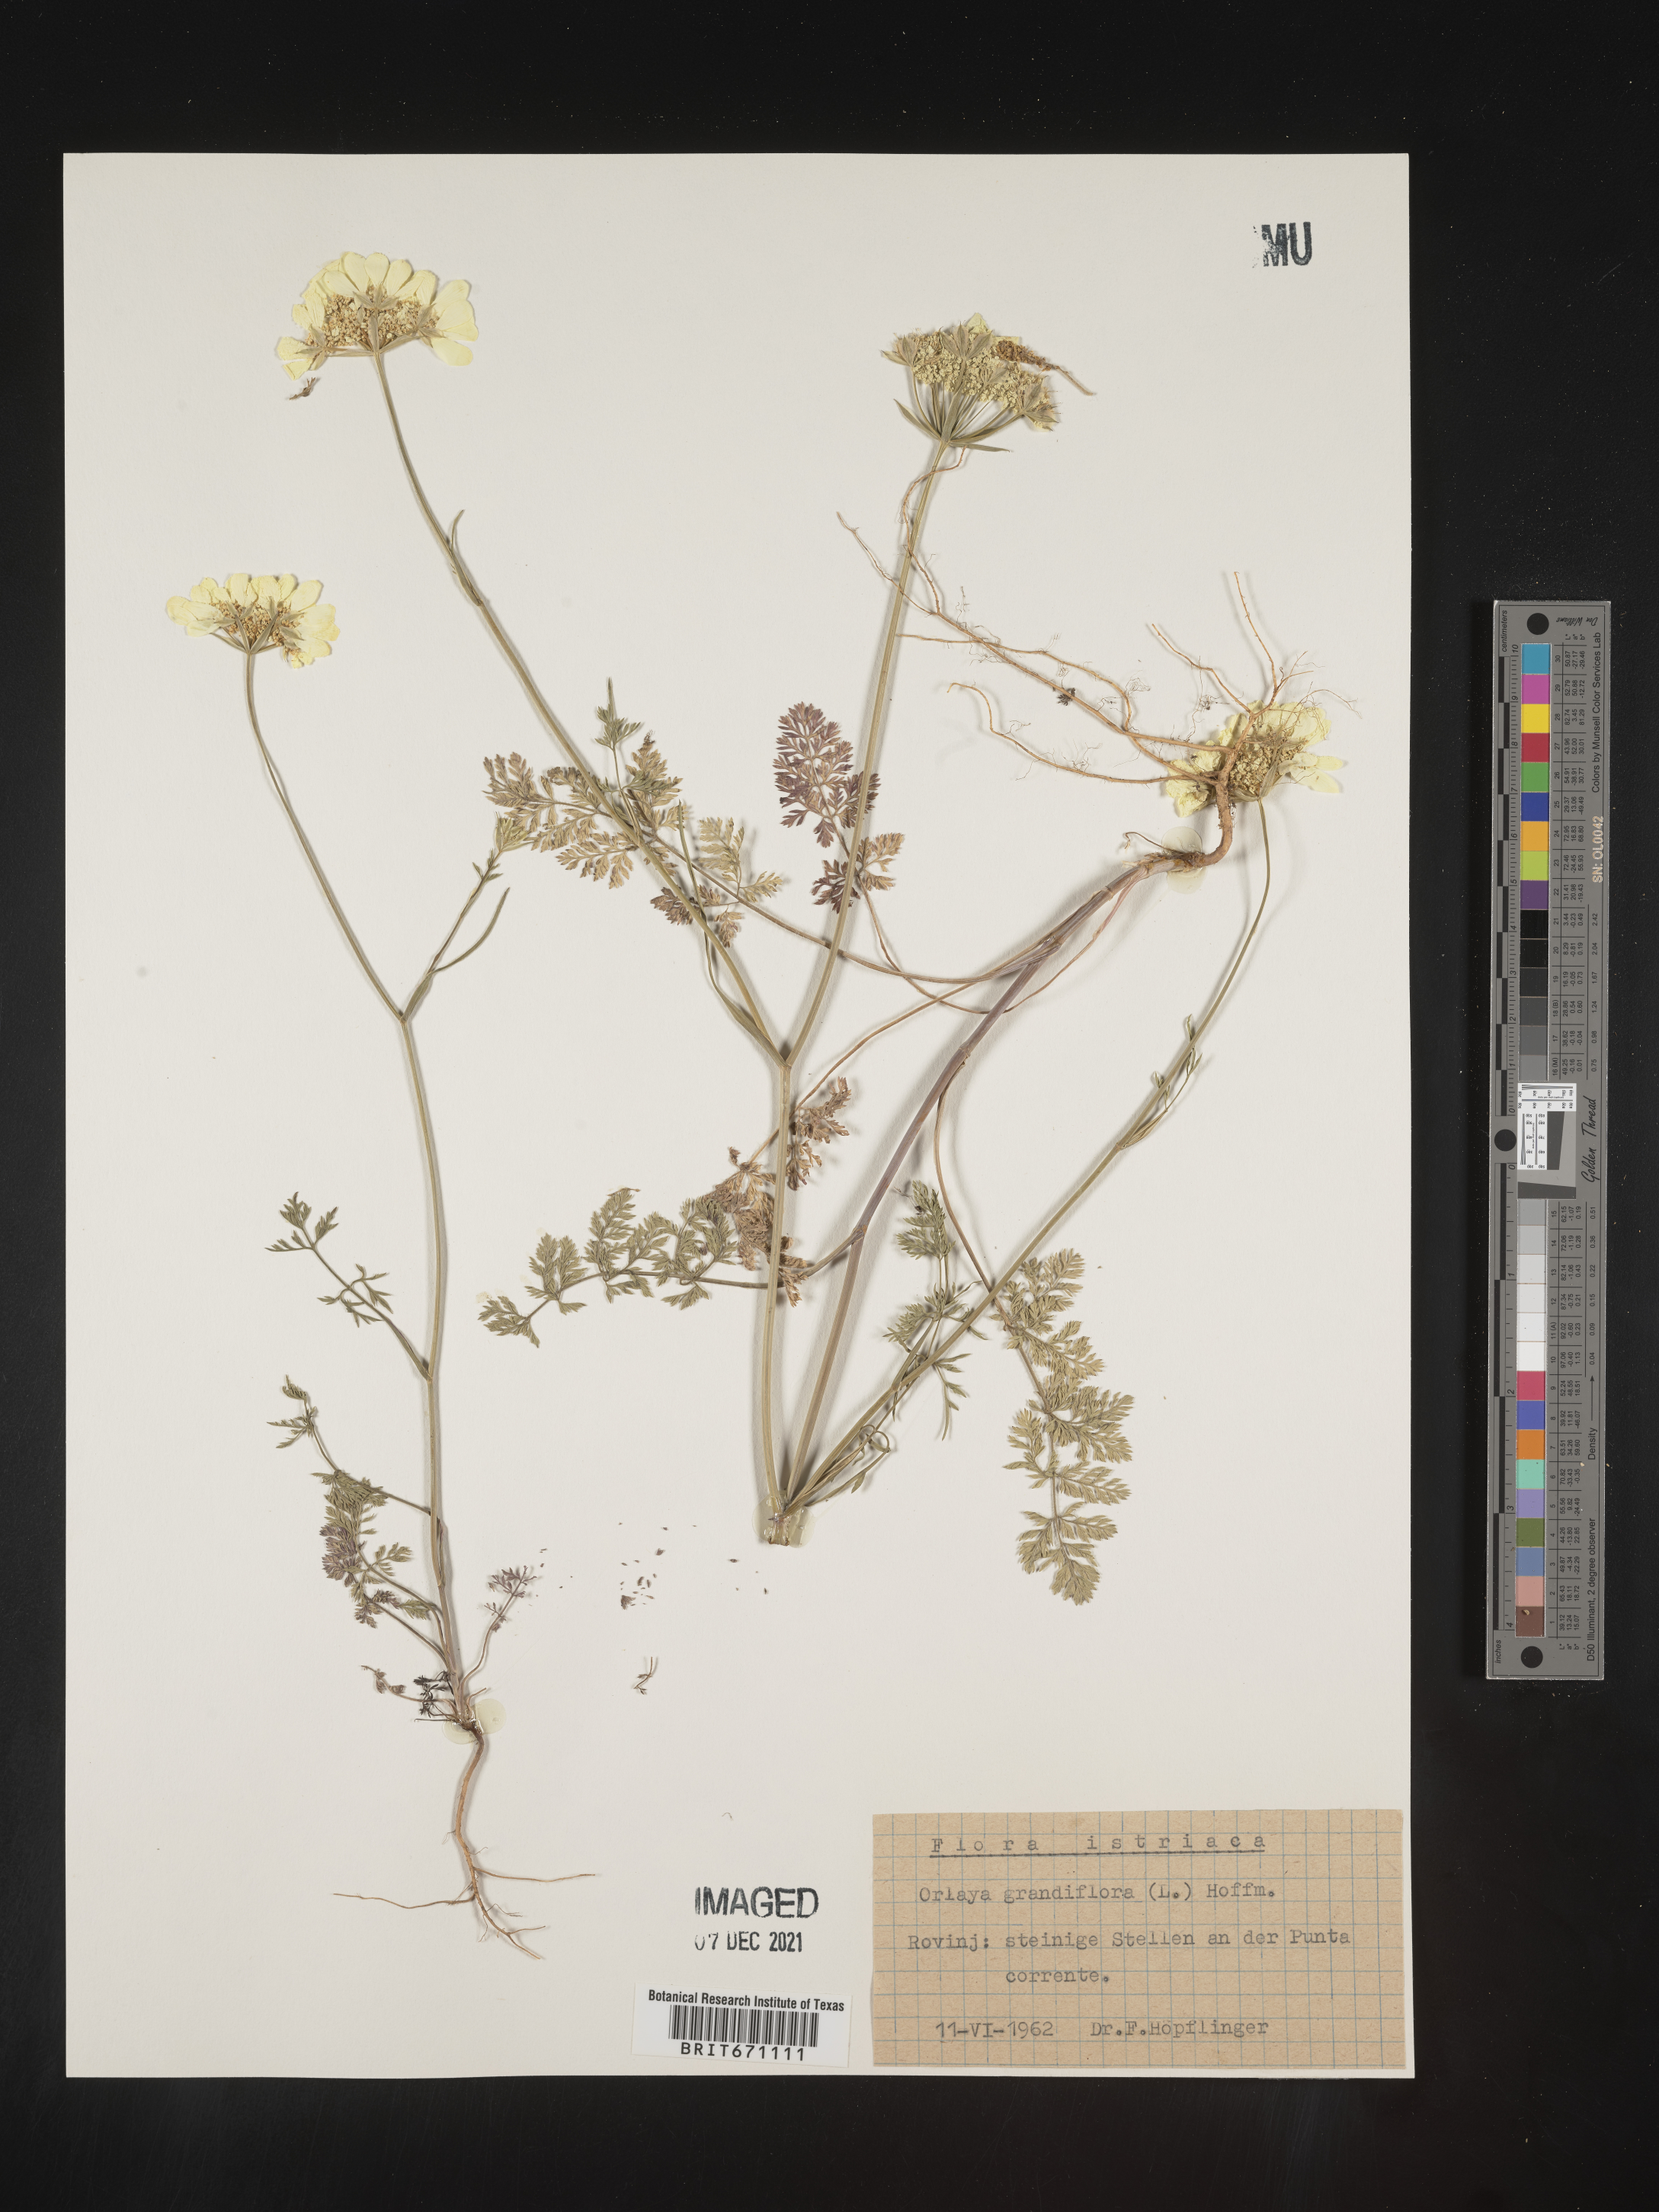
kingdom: Plantae
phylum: Tracheophyta
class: Magnoliopsida
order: Apiales
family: Apiaceae
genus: Orlaya
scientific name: Orlaya
